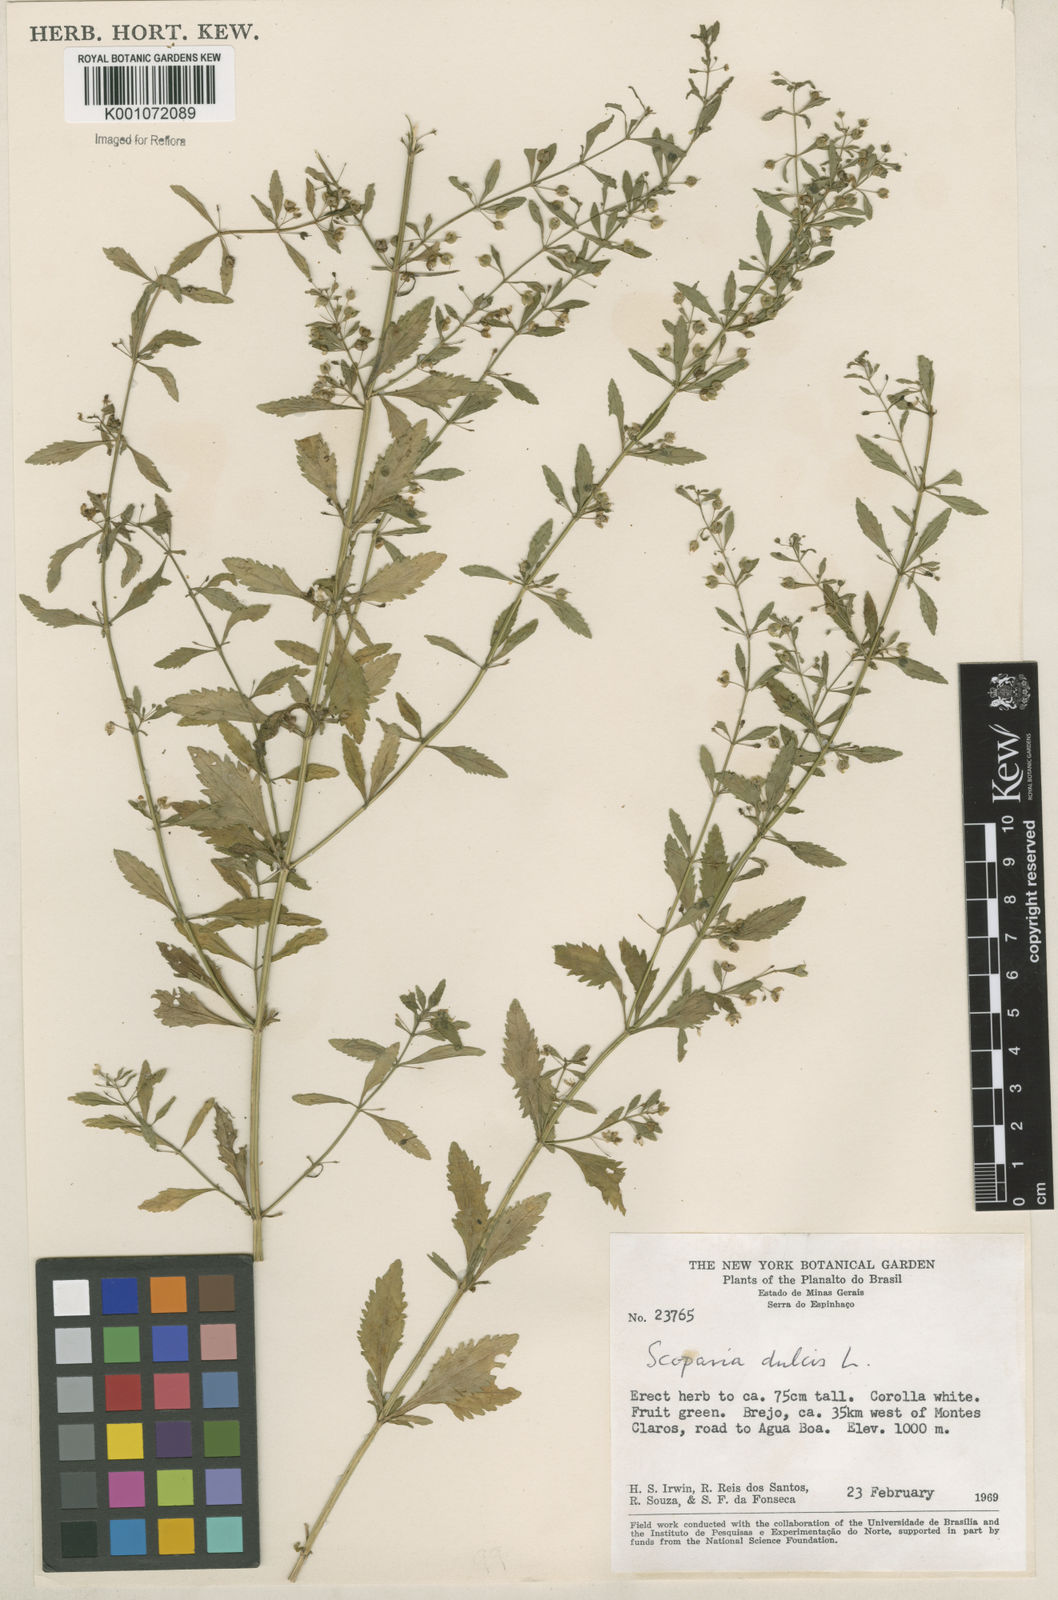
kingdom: Plantae
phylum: Tracheophyta
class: Magnoliopsida
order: Lamiales
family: Plantaginaceae
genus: Scoparia
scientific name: Scoparia dulcis
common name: Scoparia-weed
